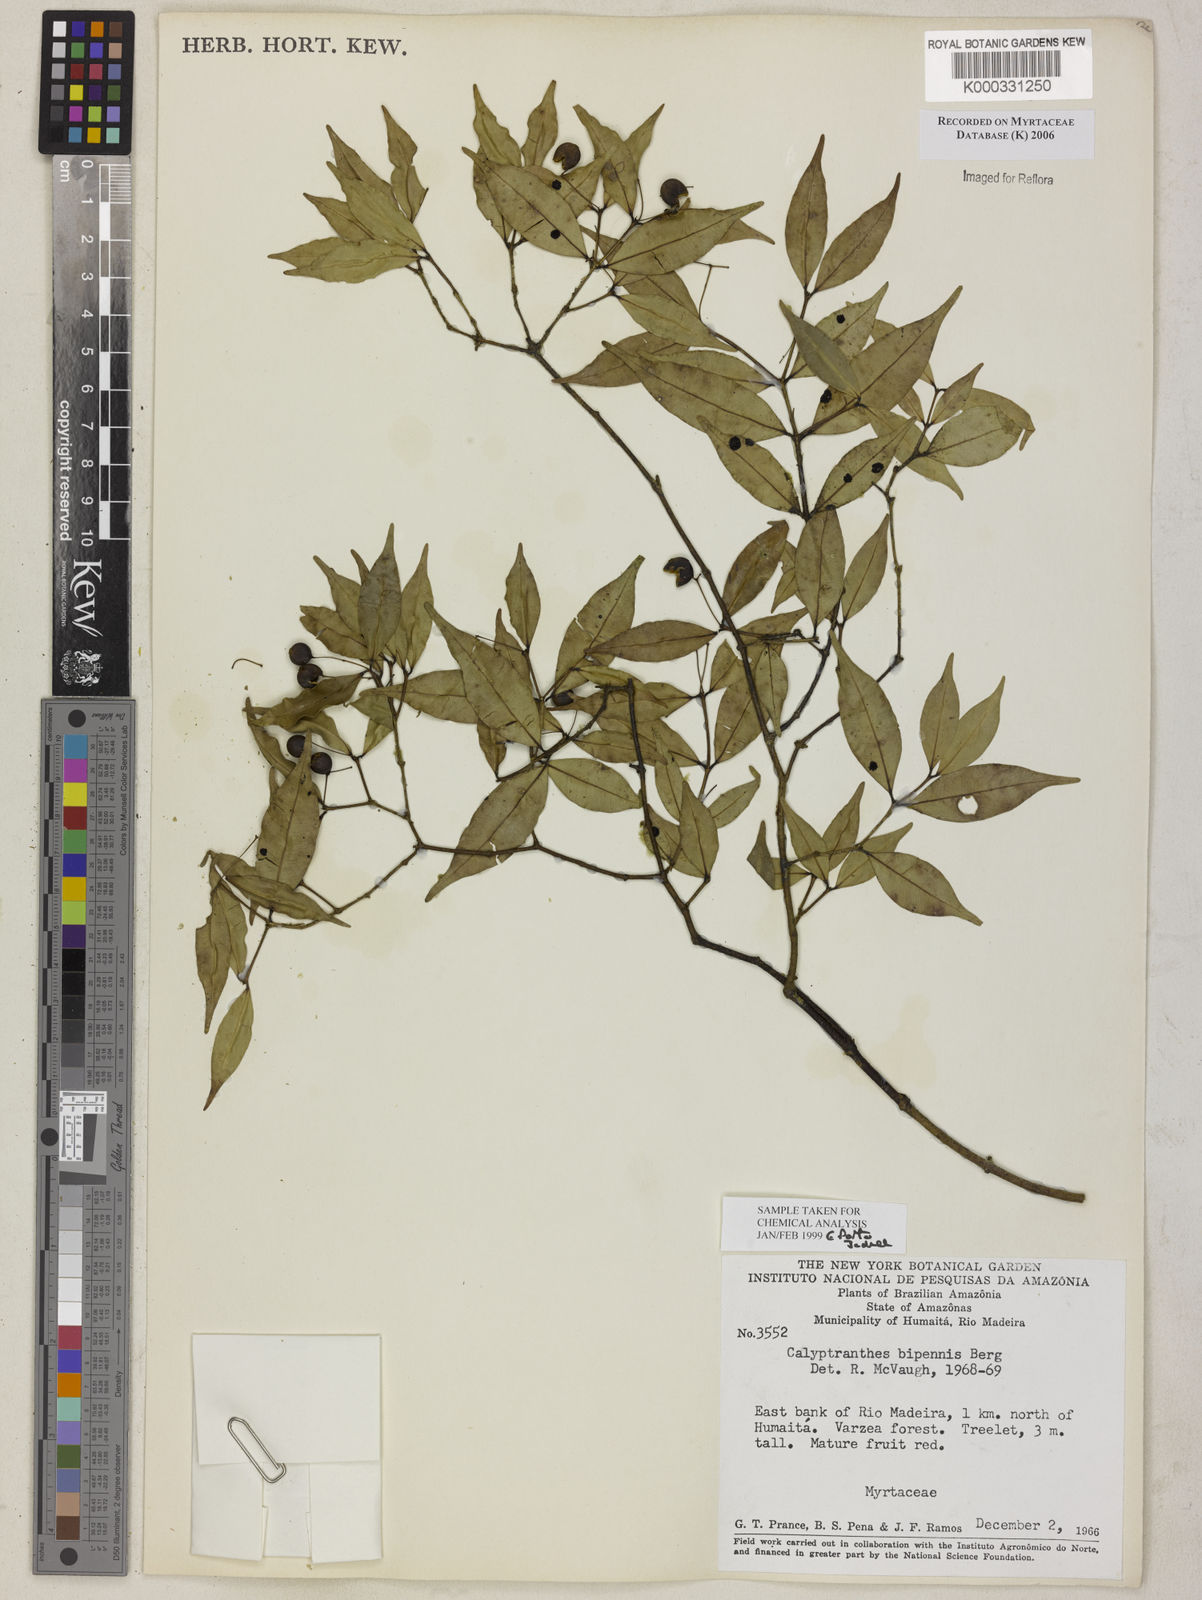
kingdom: Plantae
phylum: Tracheophyta
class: Magnoliopsida
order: Myrtales
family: Myrtaceae
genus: Myrcia
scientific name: Myrcia tenuiflora
